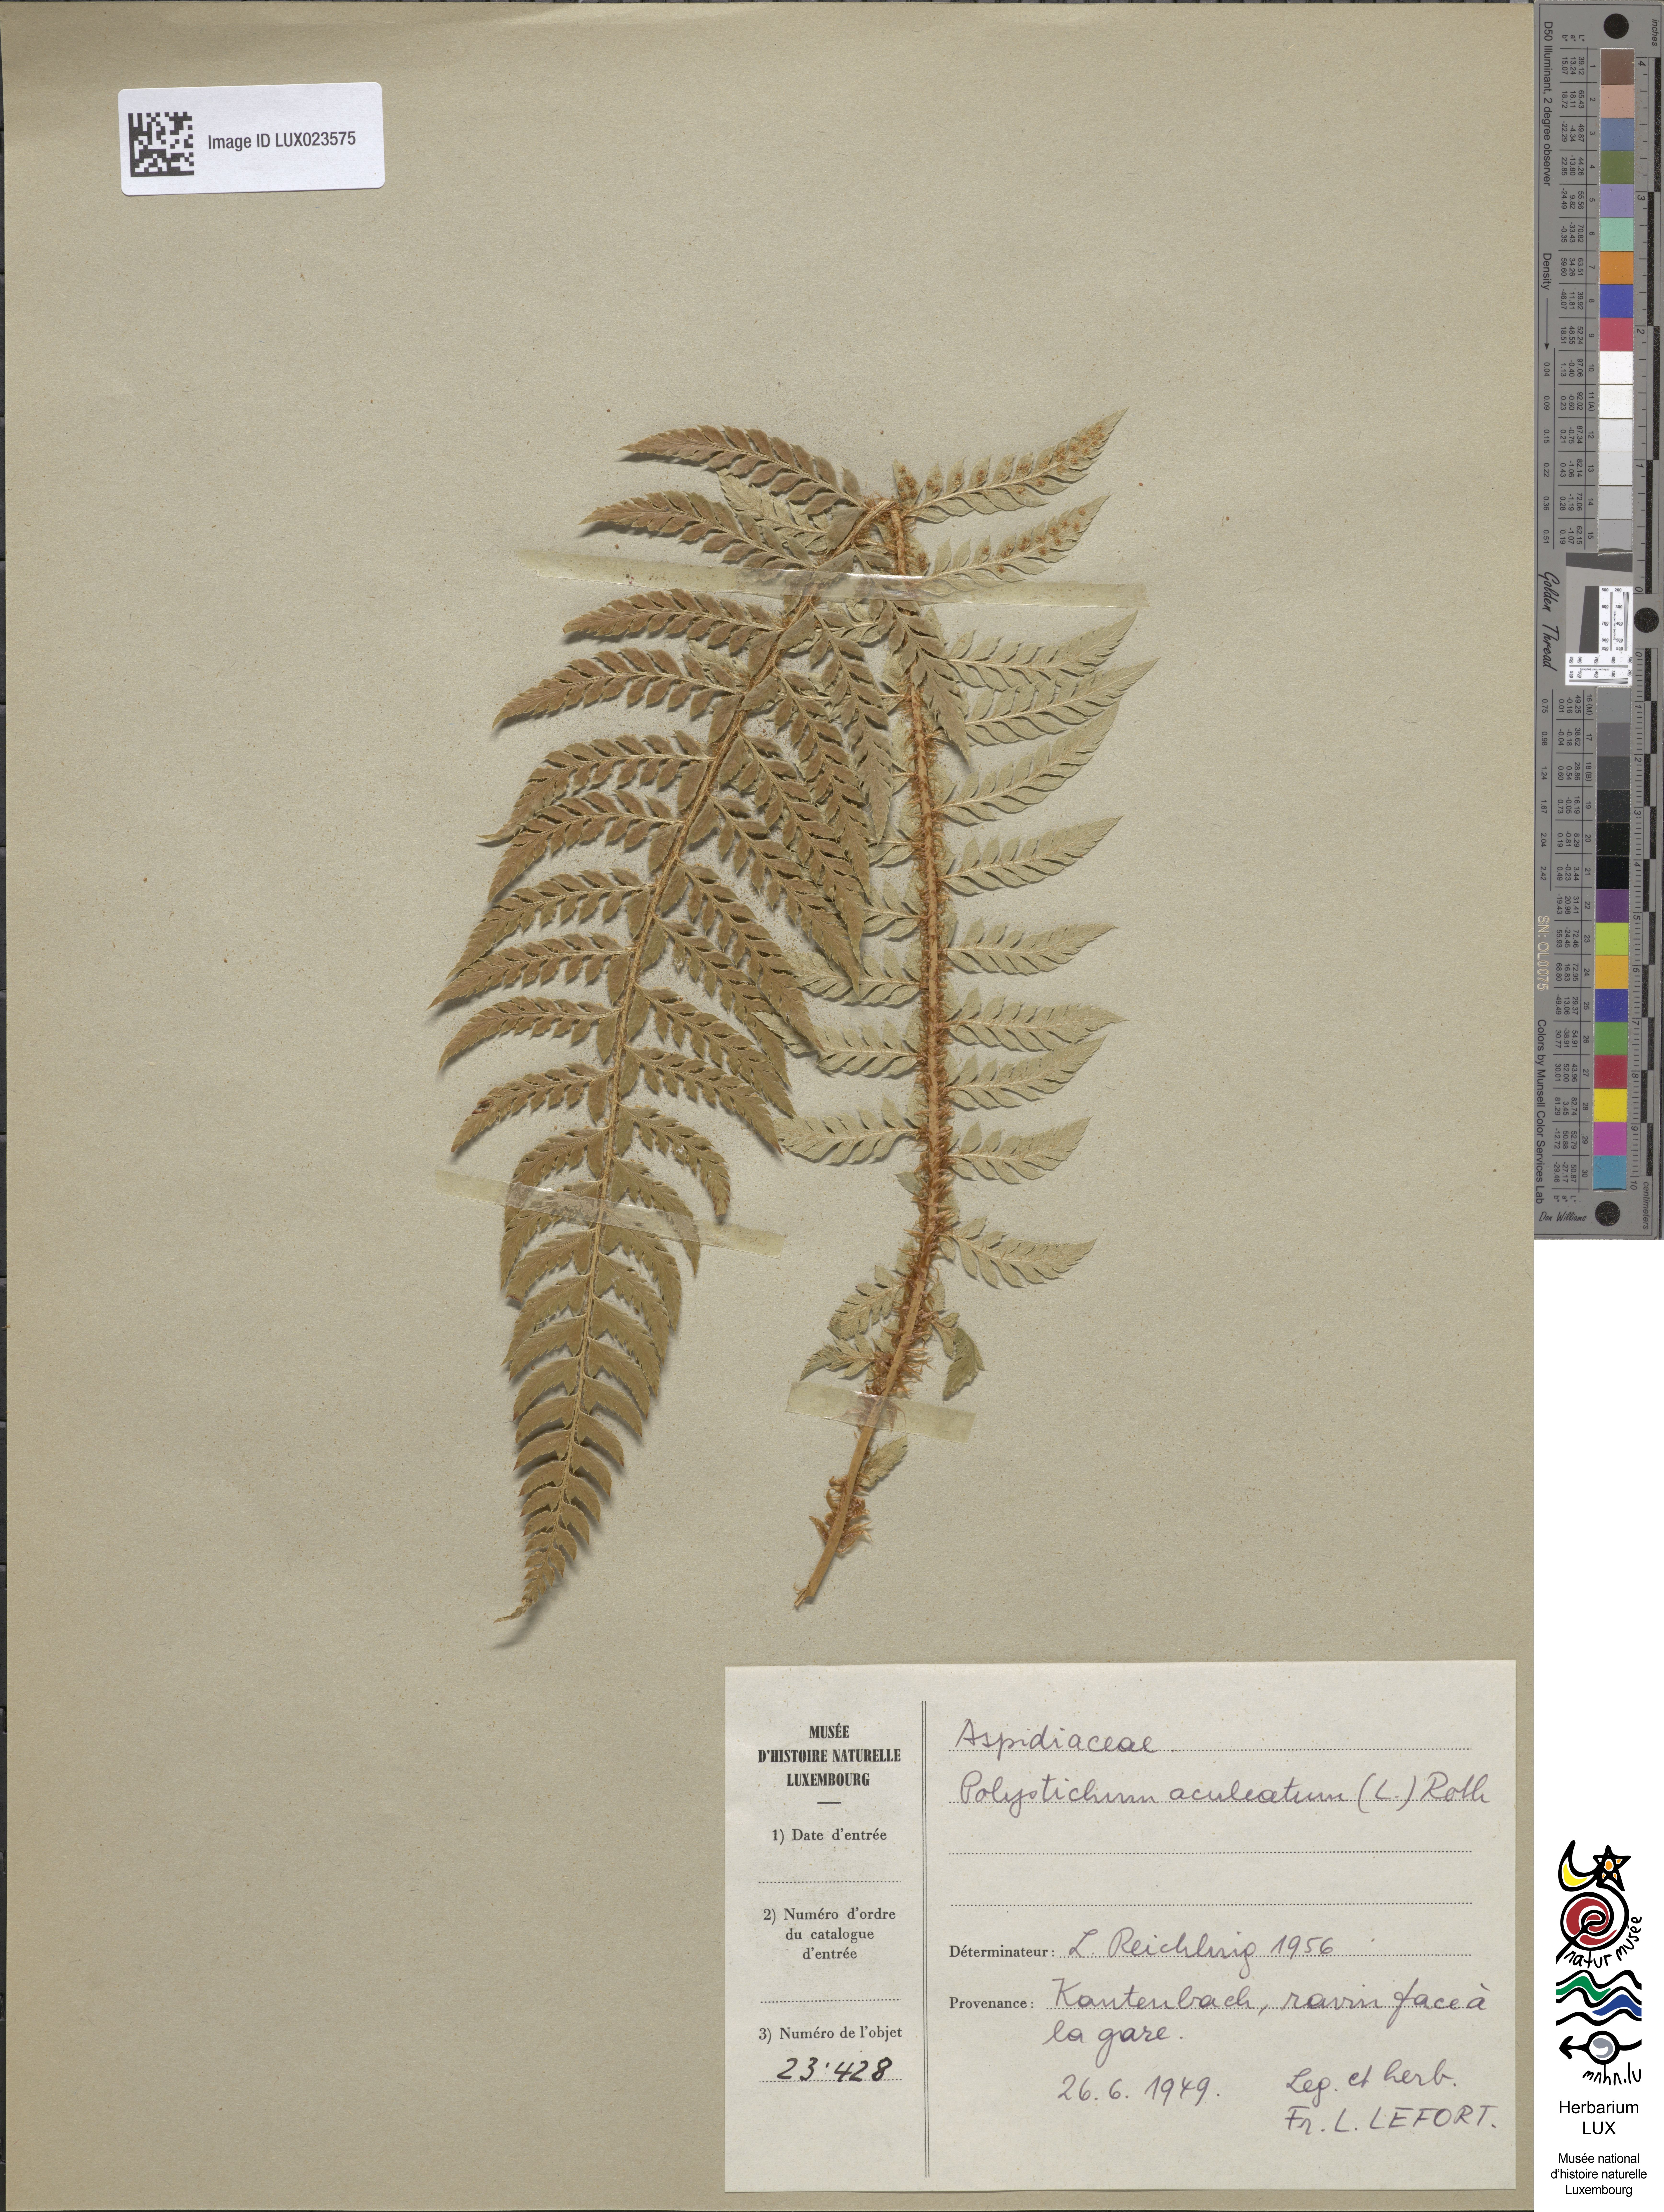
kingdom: Plantae
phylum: Tracheophyta
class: Polypodiopsida
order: Polypodiales
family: Dryopteridaceae
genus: Polystichum
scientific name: Polystichum aculeatum
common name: Hard shield-fern
